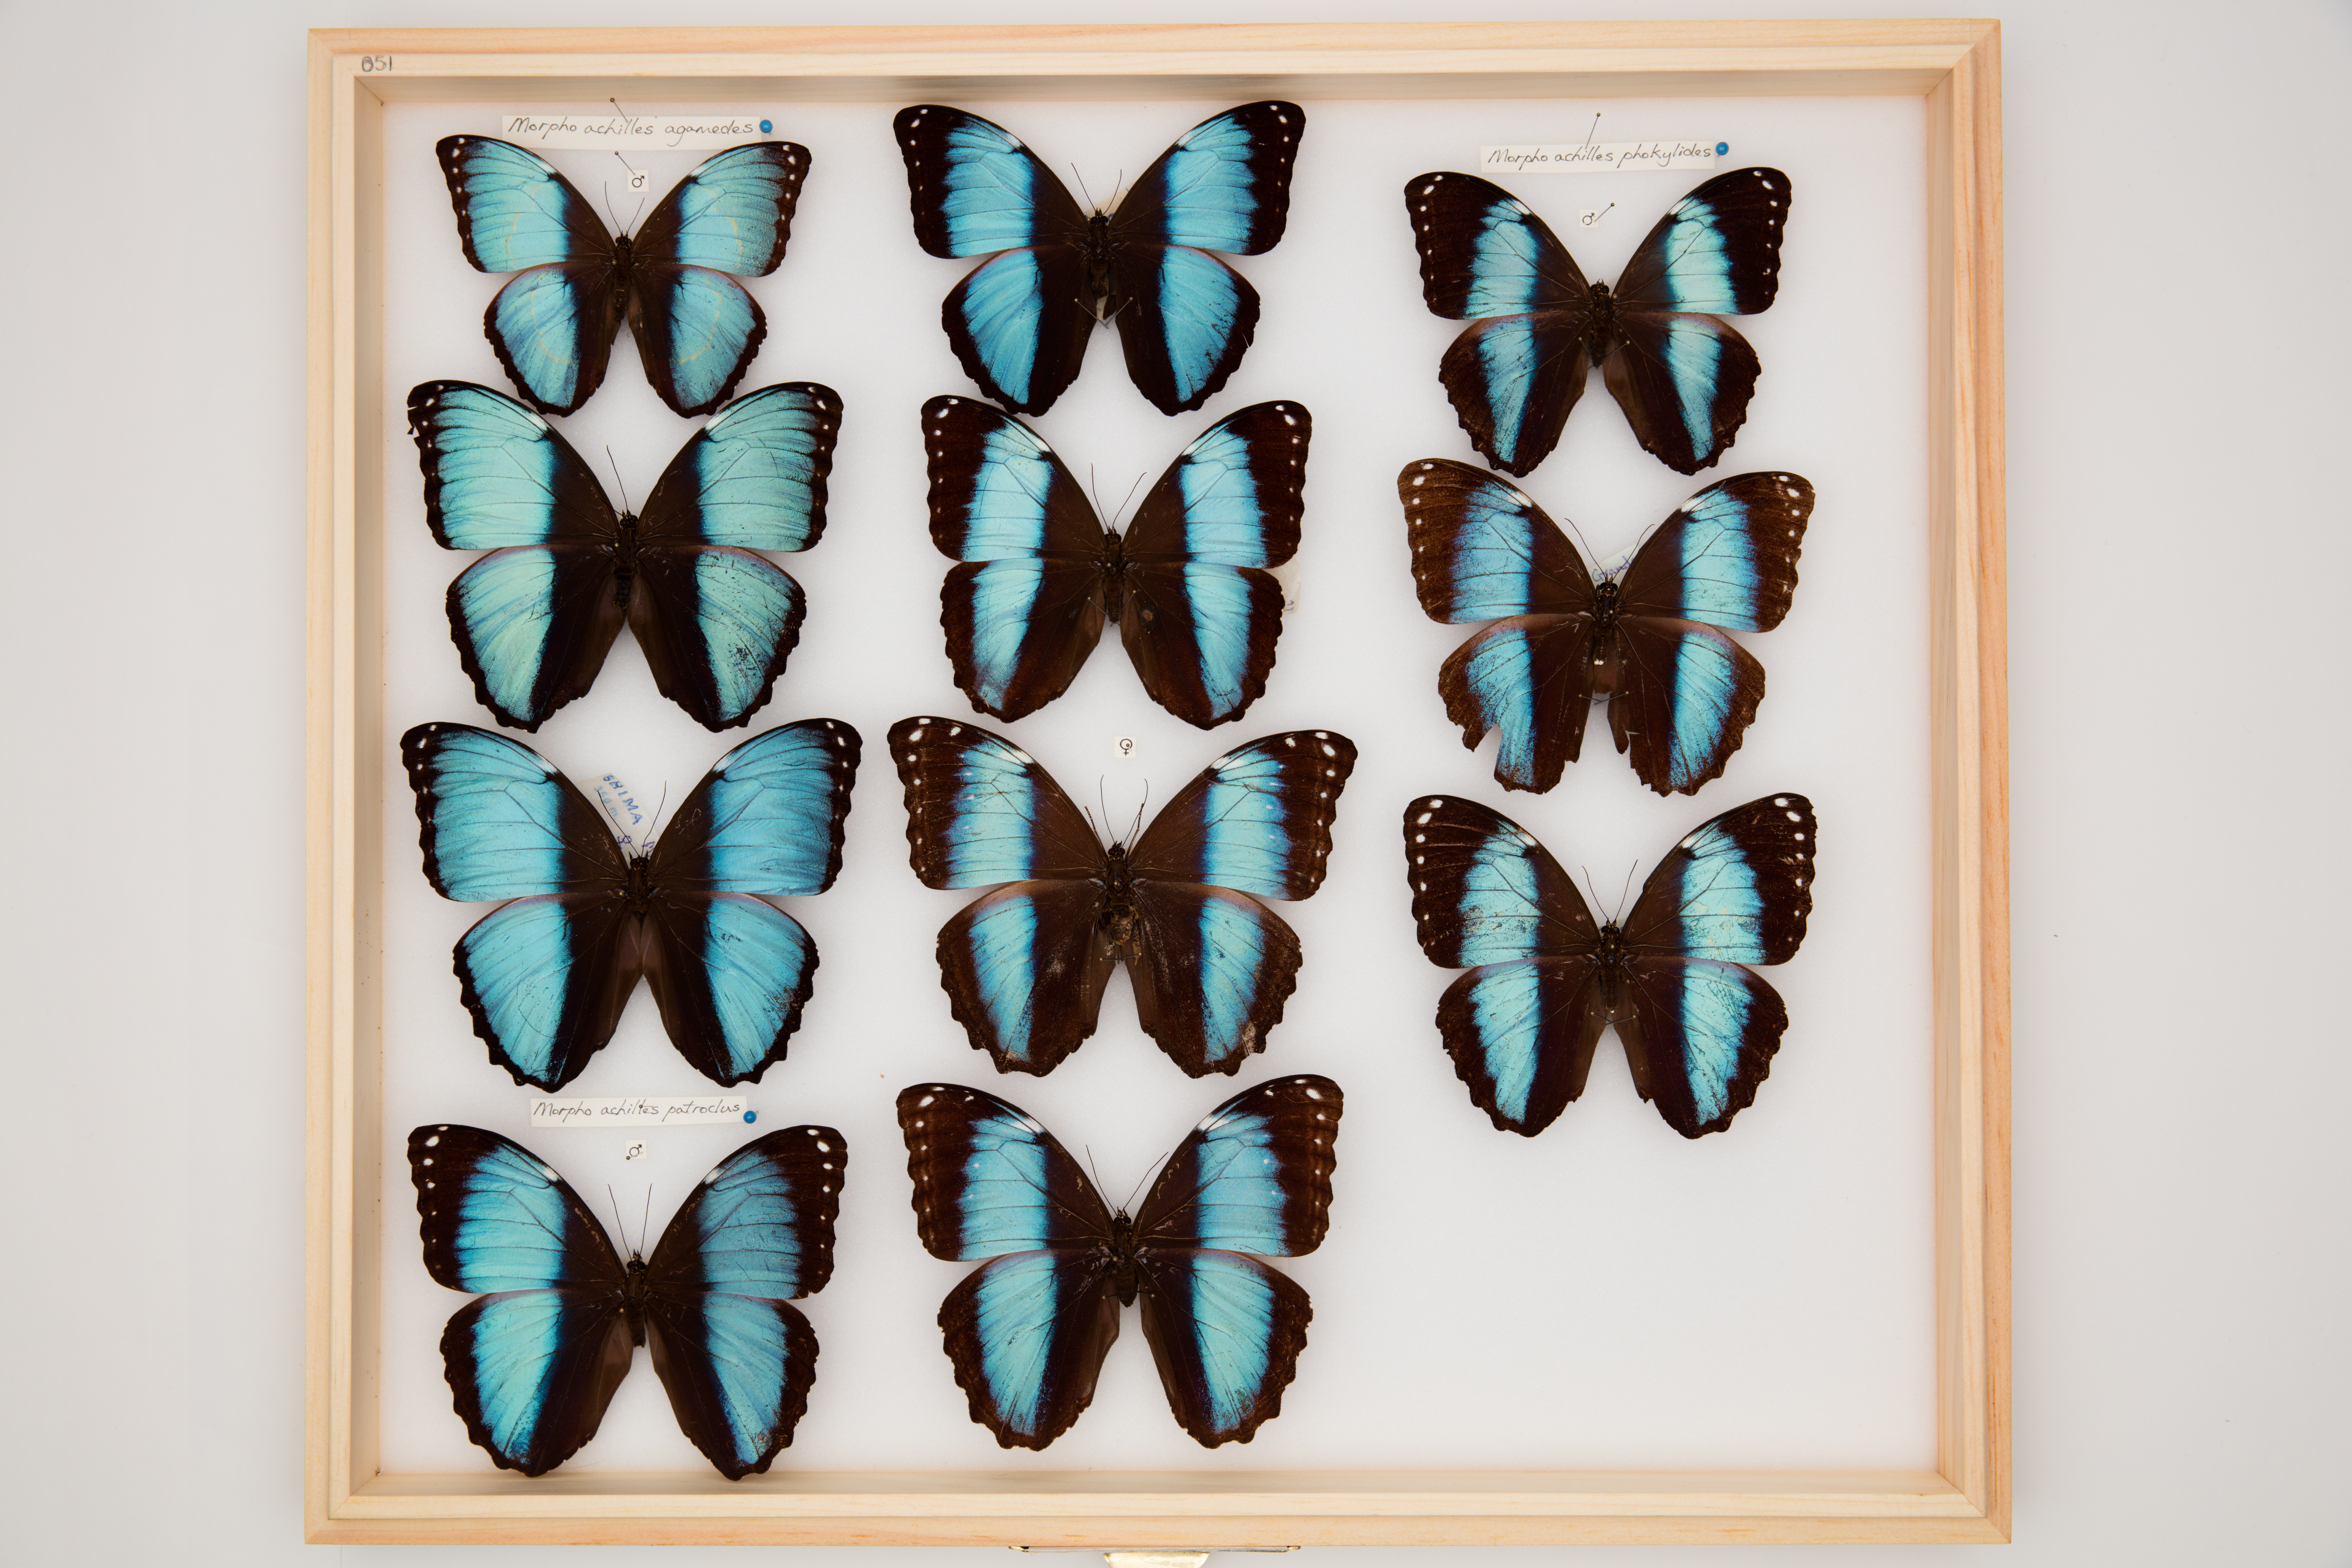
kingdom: Animalia
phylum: Arthropoda
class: Insecta
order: Lepidoptera
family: Nymphalidae
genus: Morpho
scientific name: Morpho achilles
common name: Achilles morpho
